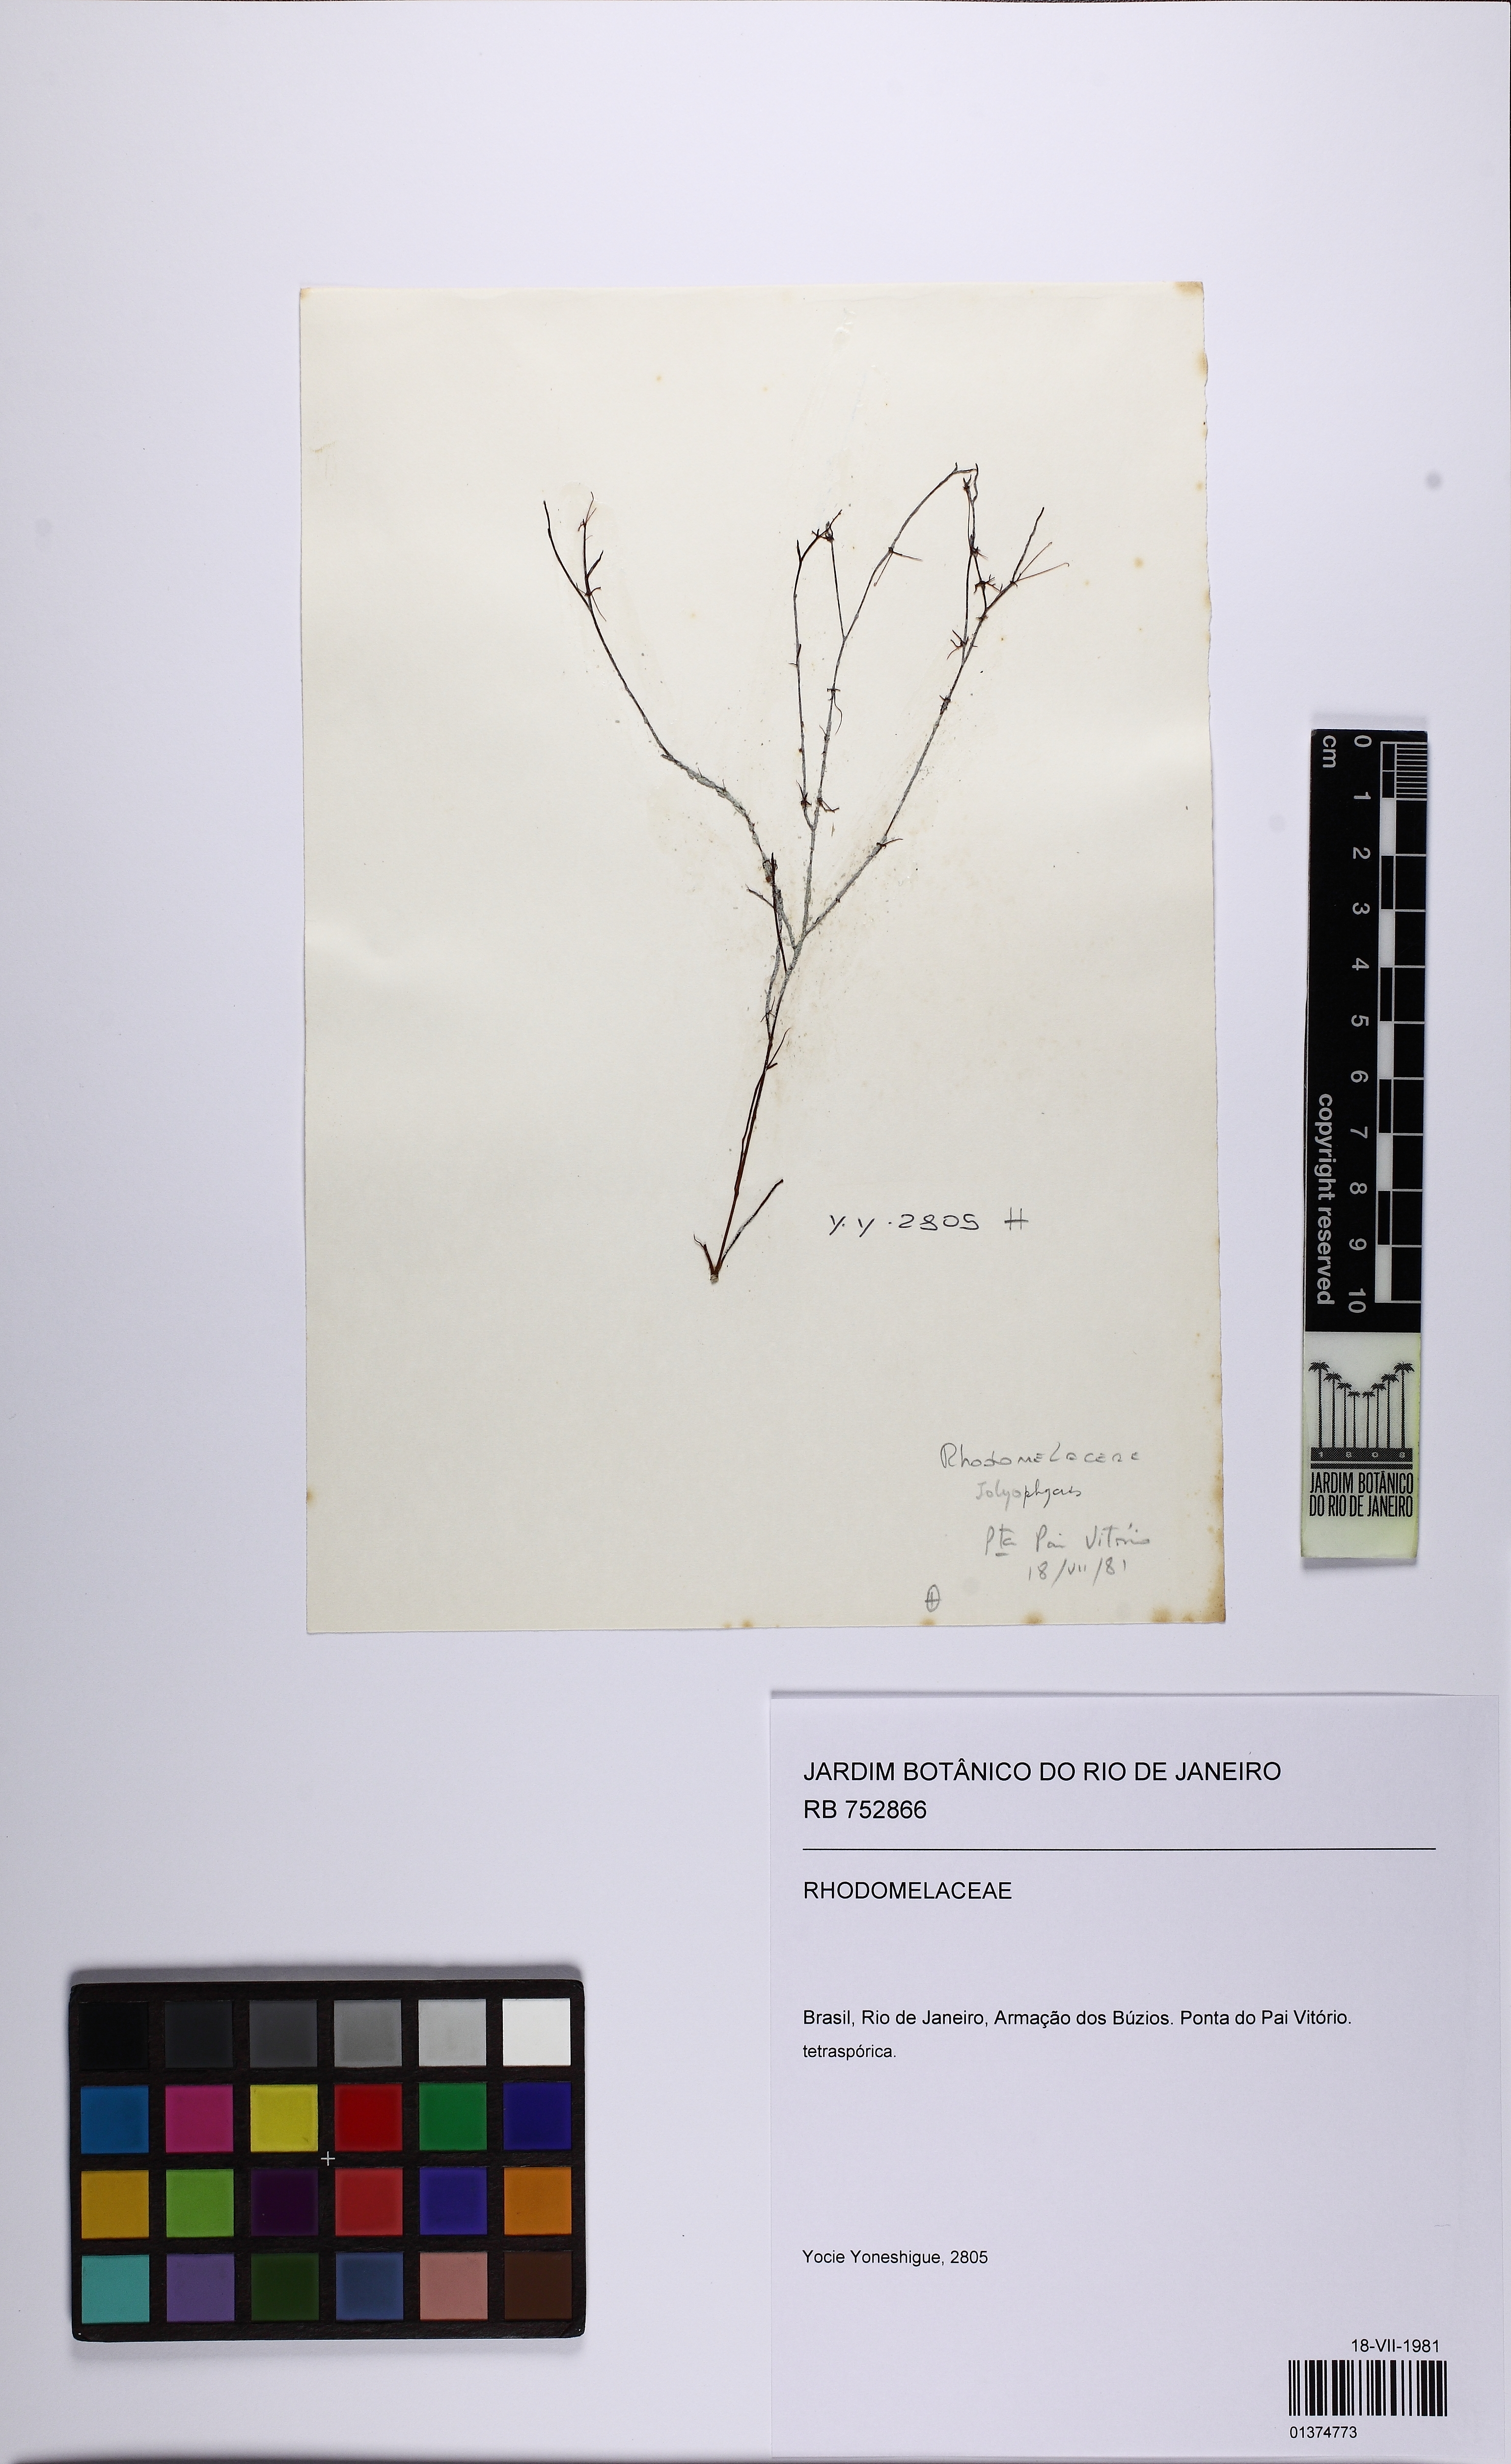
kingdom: Plantae
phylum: Rhodophyta
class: Florideophyceae
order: Ceramiales
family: Rhodomelaceae
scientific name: Rhodomelaceae
